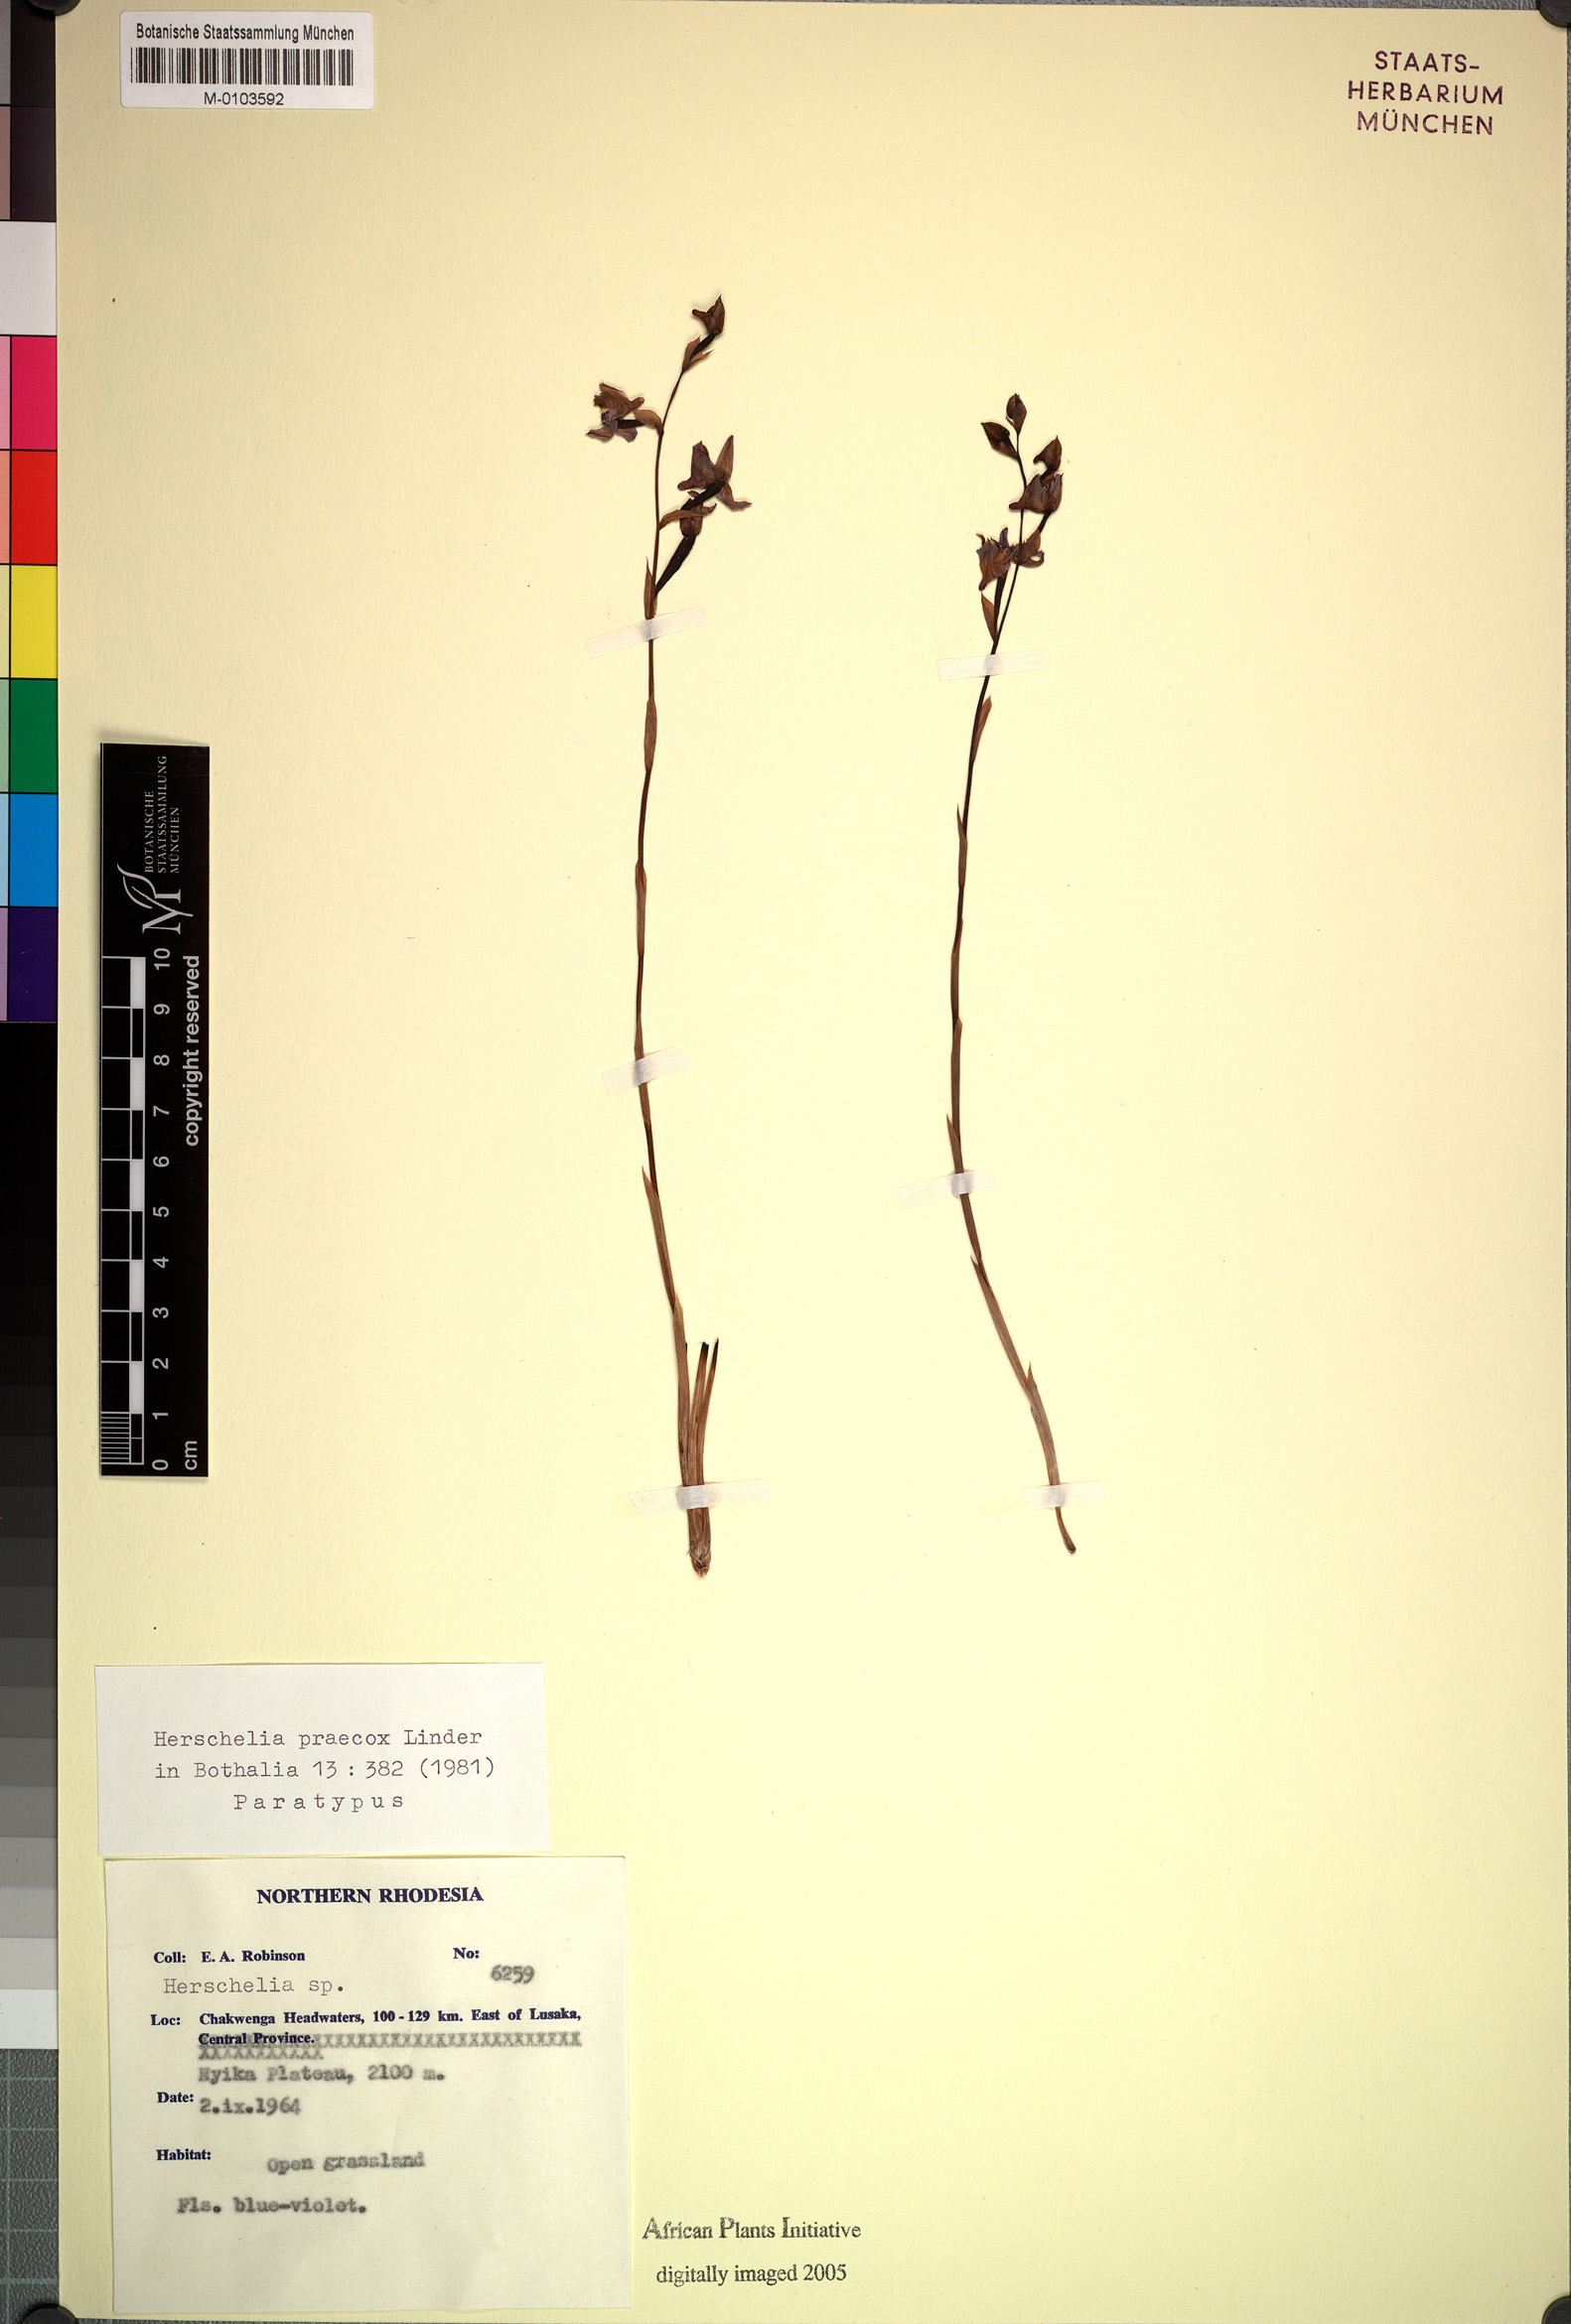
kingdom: Plantae
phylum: Tracheophyta
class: Liliopsida
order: Asparagales
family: Orchidaceae
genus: Disa
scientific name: Disa praecox
